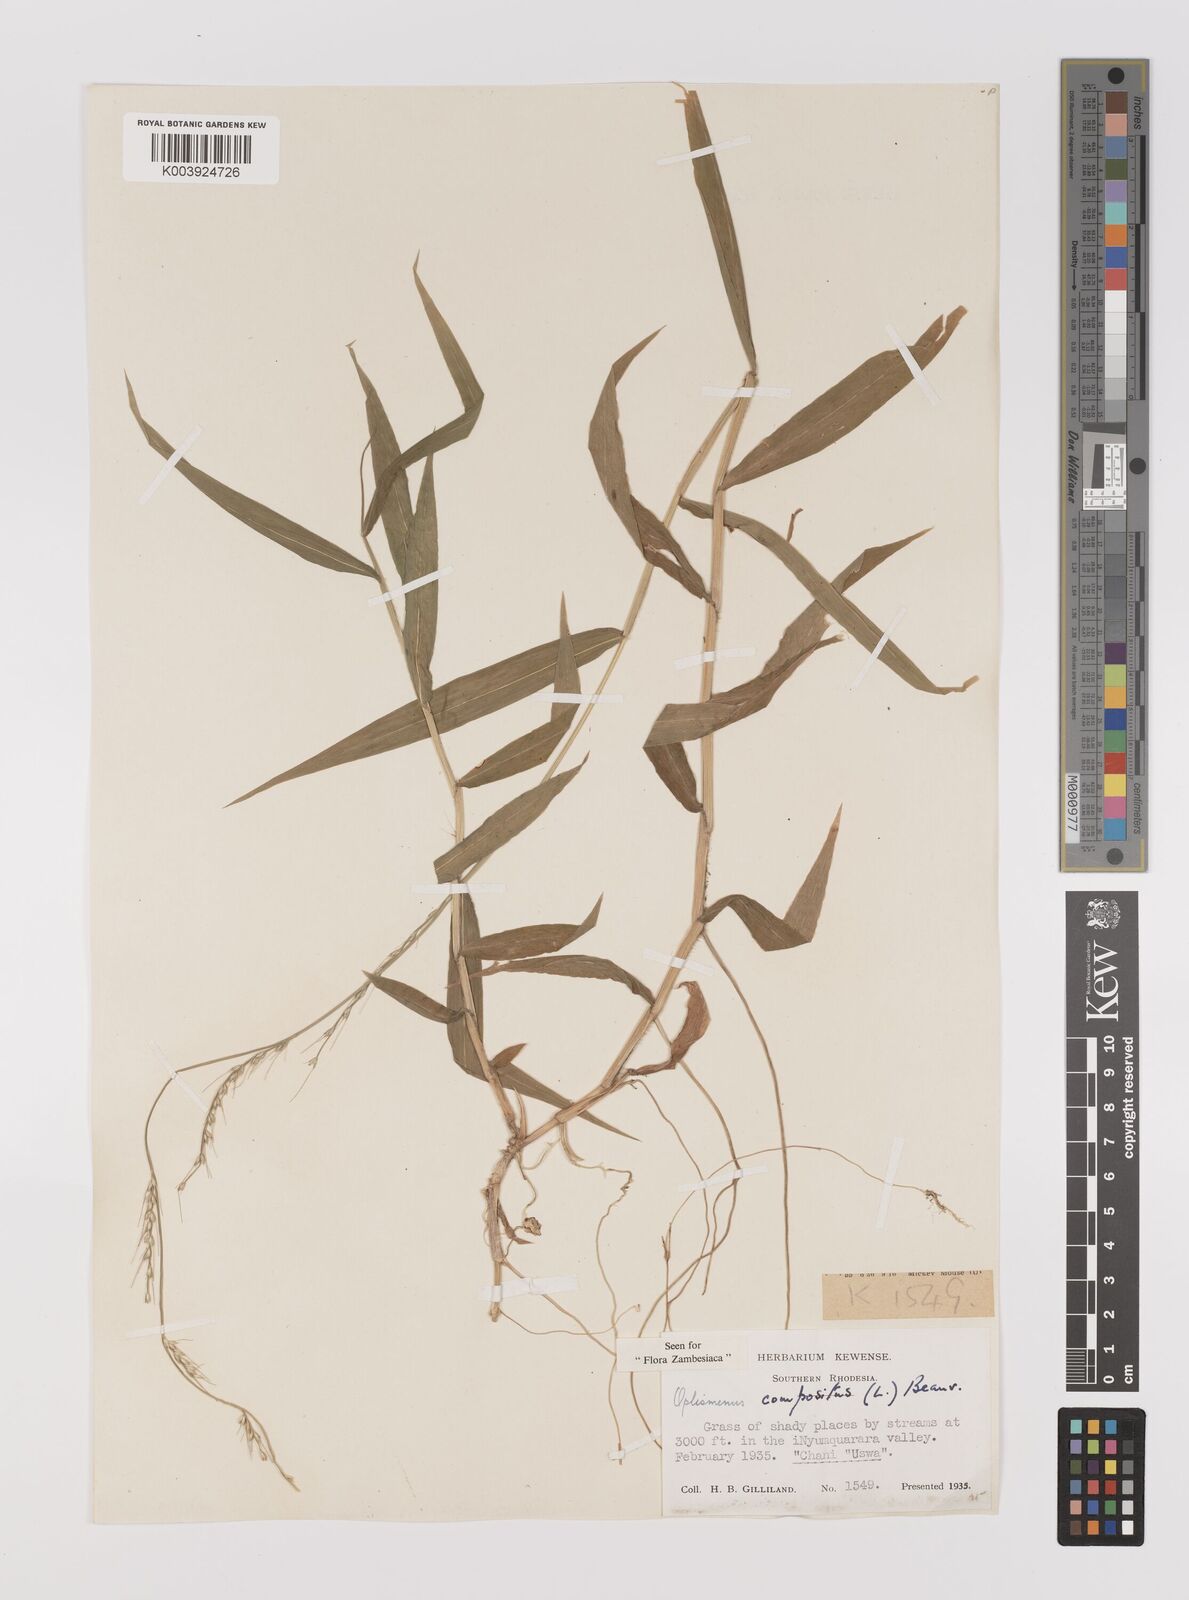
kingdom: Plantae
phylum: Tracheophyta
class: Liliopsida
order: Poales
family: Poaceae
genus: Oplismenus
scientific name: Oplismenus compositus
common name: Running mountain grass
